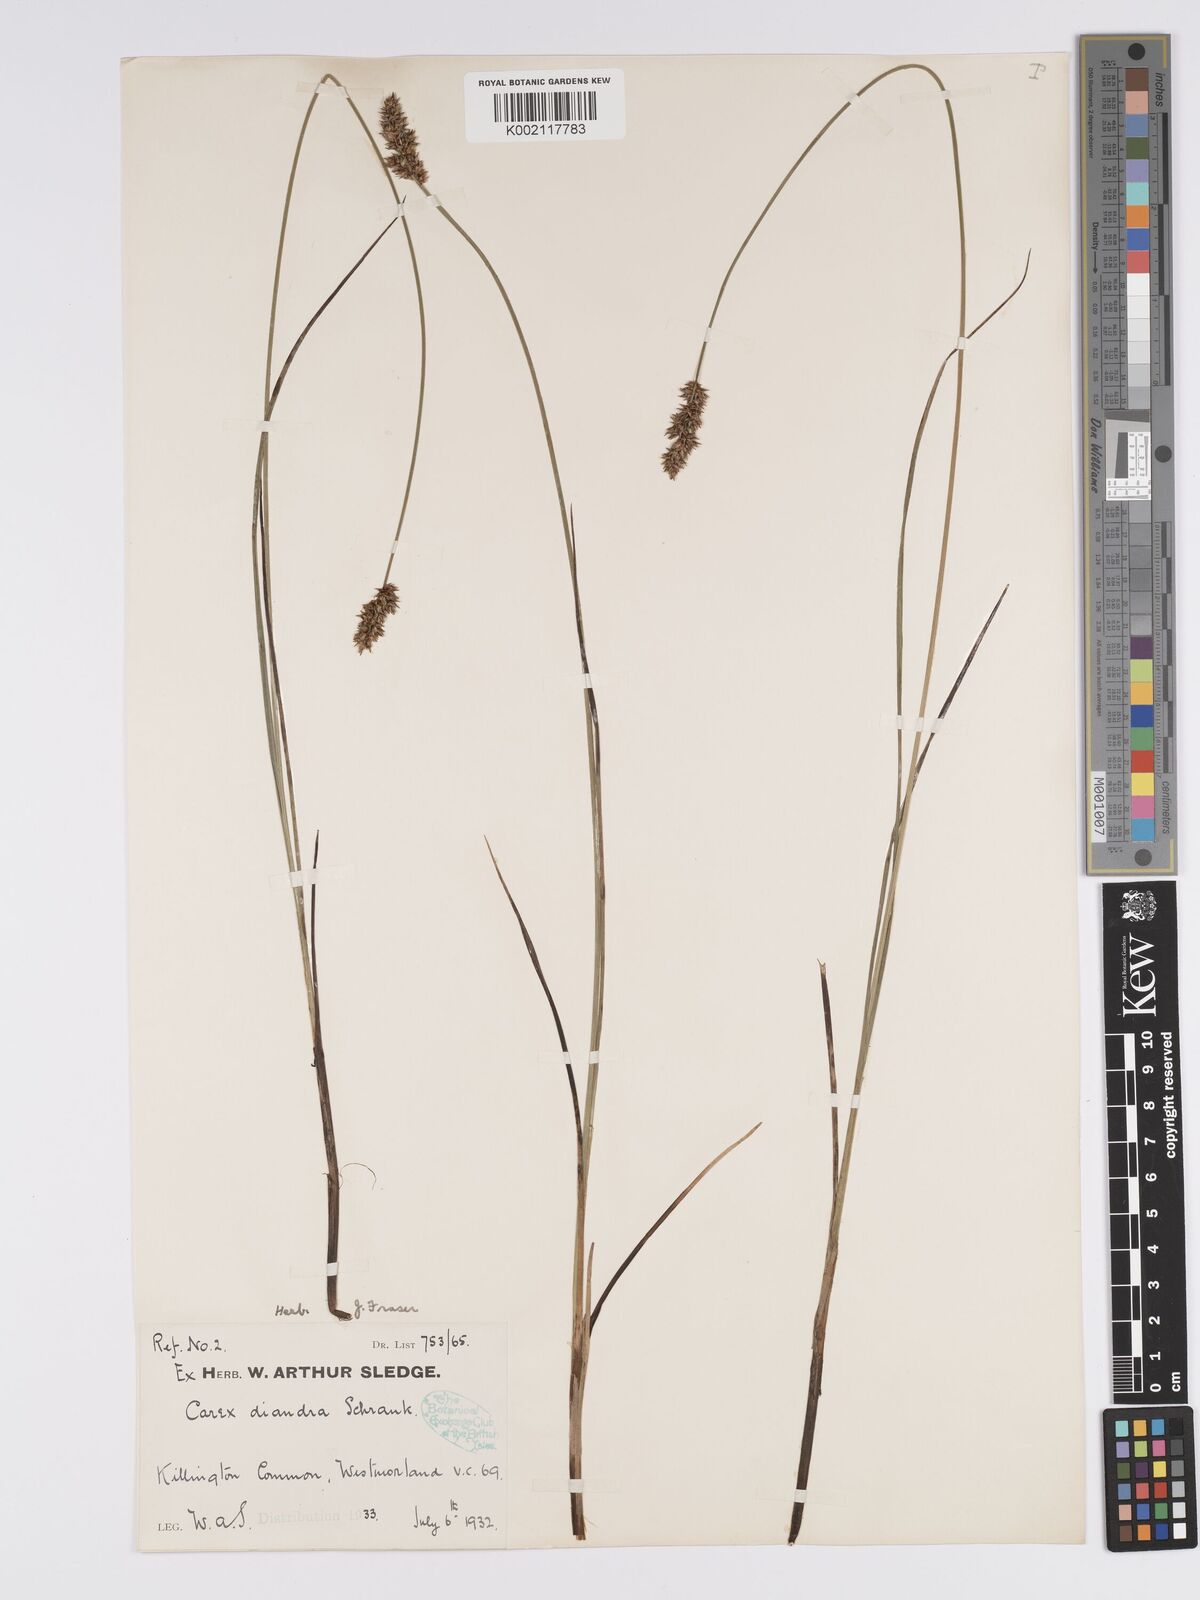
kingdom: Plantae
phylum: Tracheophyta
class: Liliopsida
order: Poales
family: Cyperaceae
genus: Carex
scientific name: Carex diandra
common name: Lesser tussock-sedge
